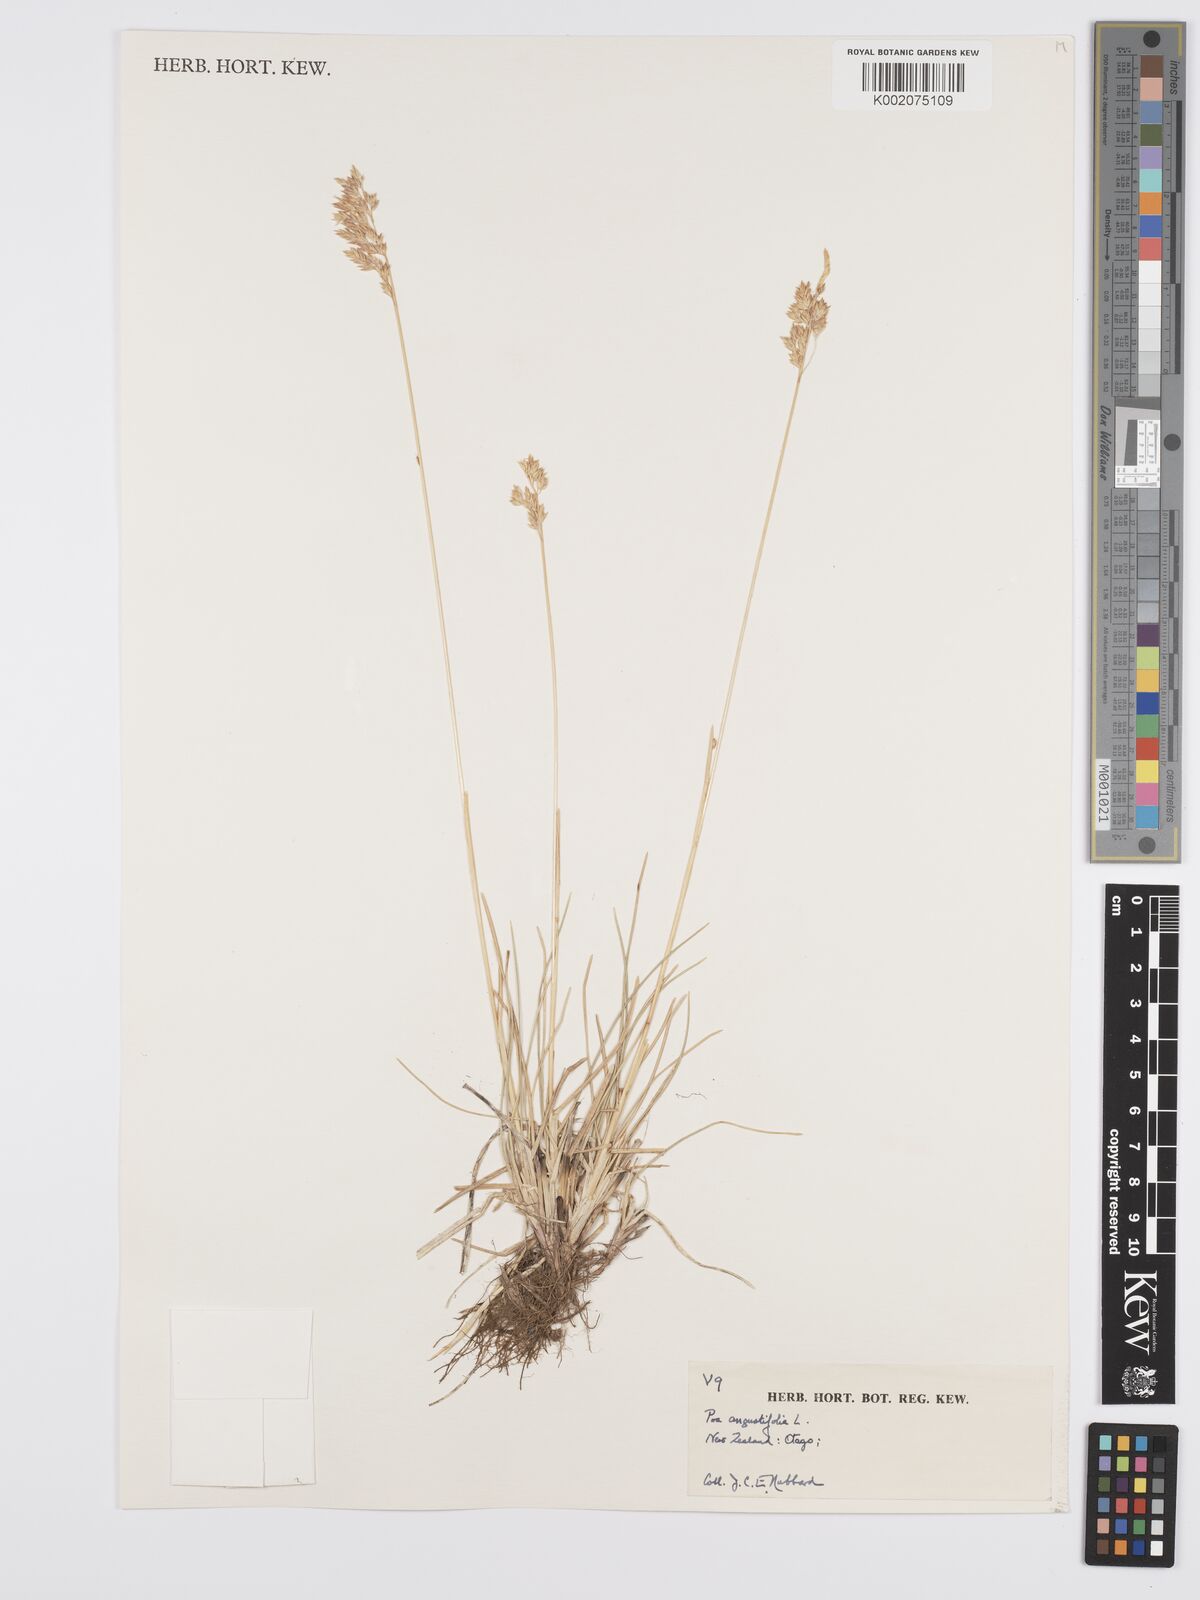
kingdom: Plantae
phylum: Tracheophyta
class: Liliopsida
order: Poales
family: Poaceae
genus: Poa
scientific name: Poa angustifolia
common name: Narrow-leaved meadow-grass
